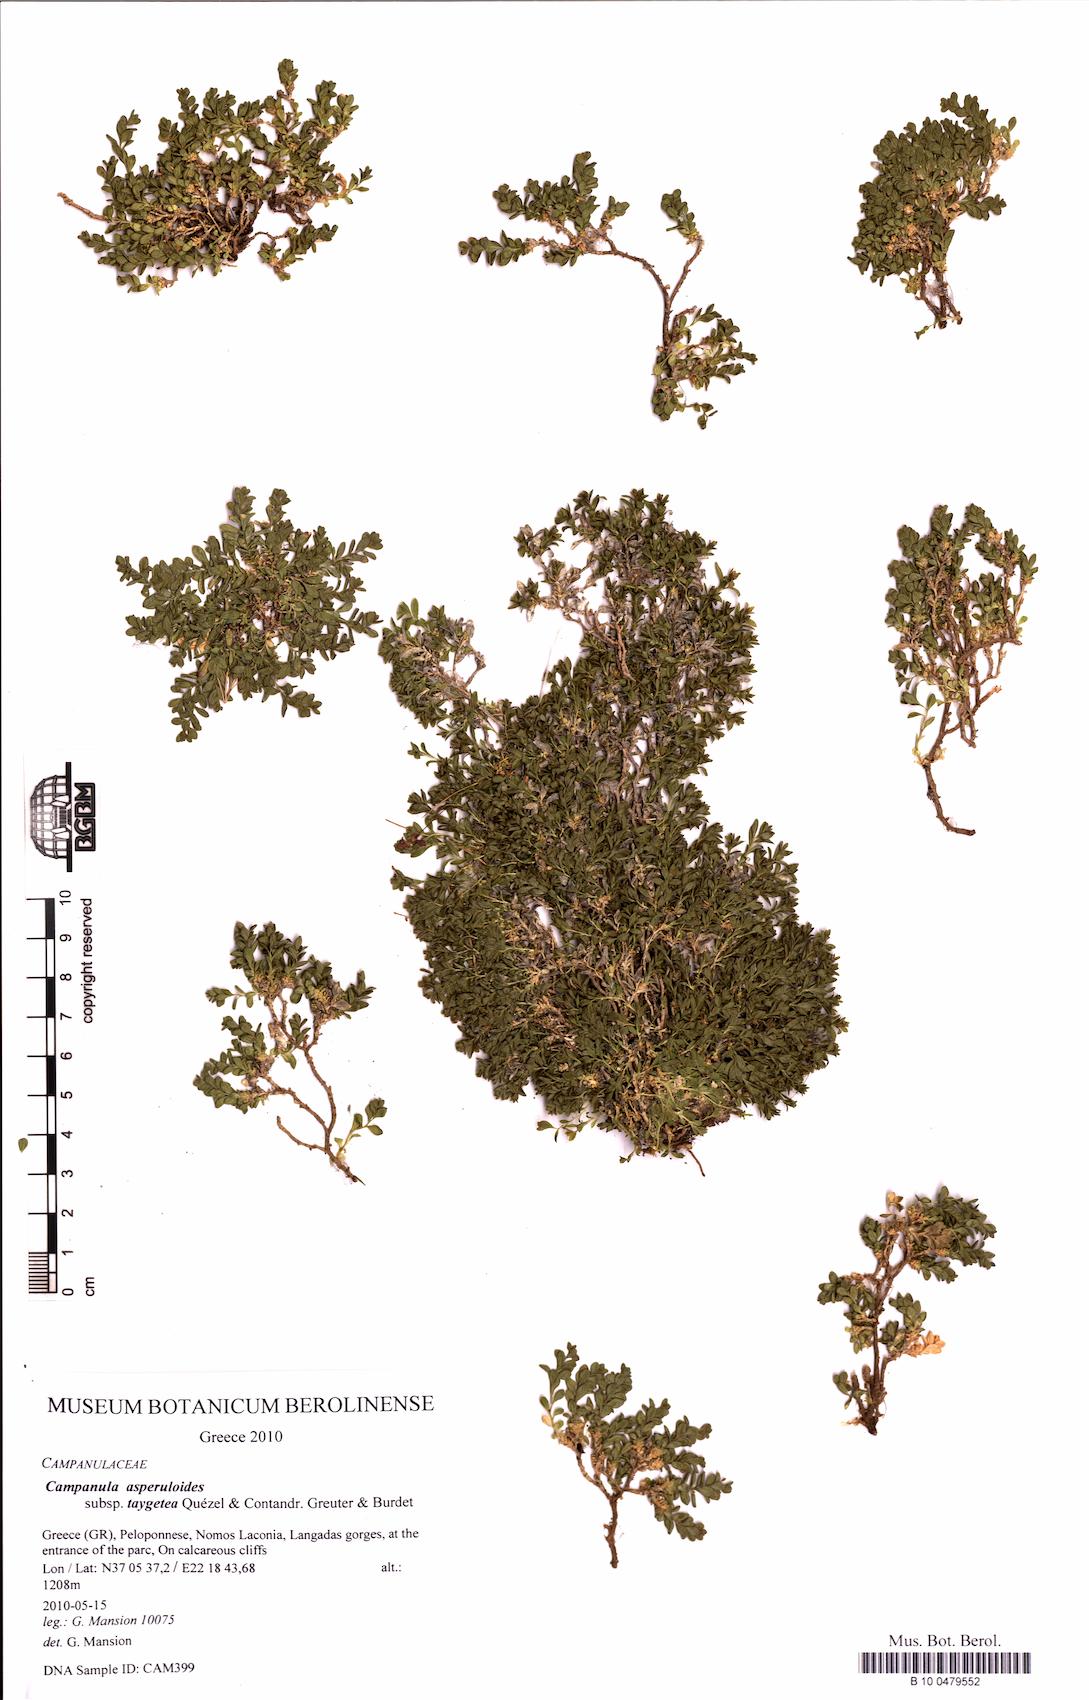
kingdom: Plantae
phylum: Tracheophyta
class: Magnoliopsida
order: Asterales
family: Campanulaceae
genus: Campanula
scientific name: Campanula asperuloides
